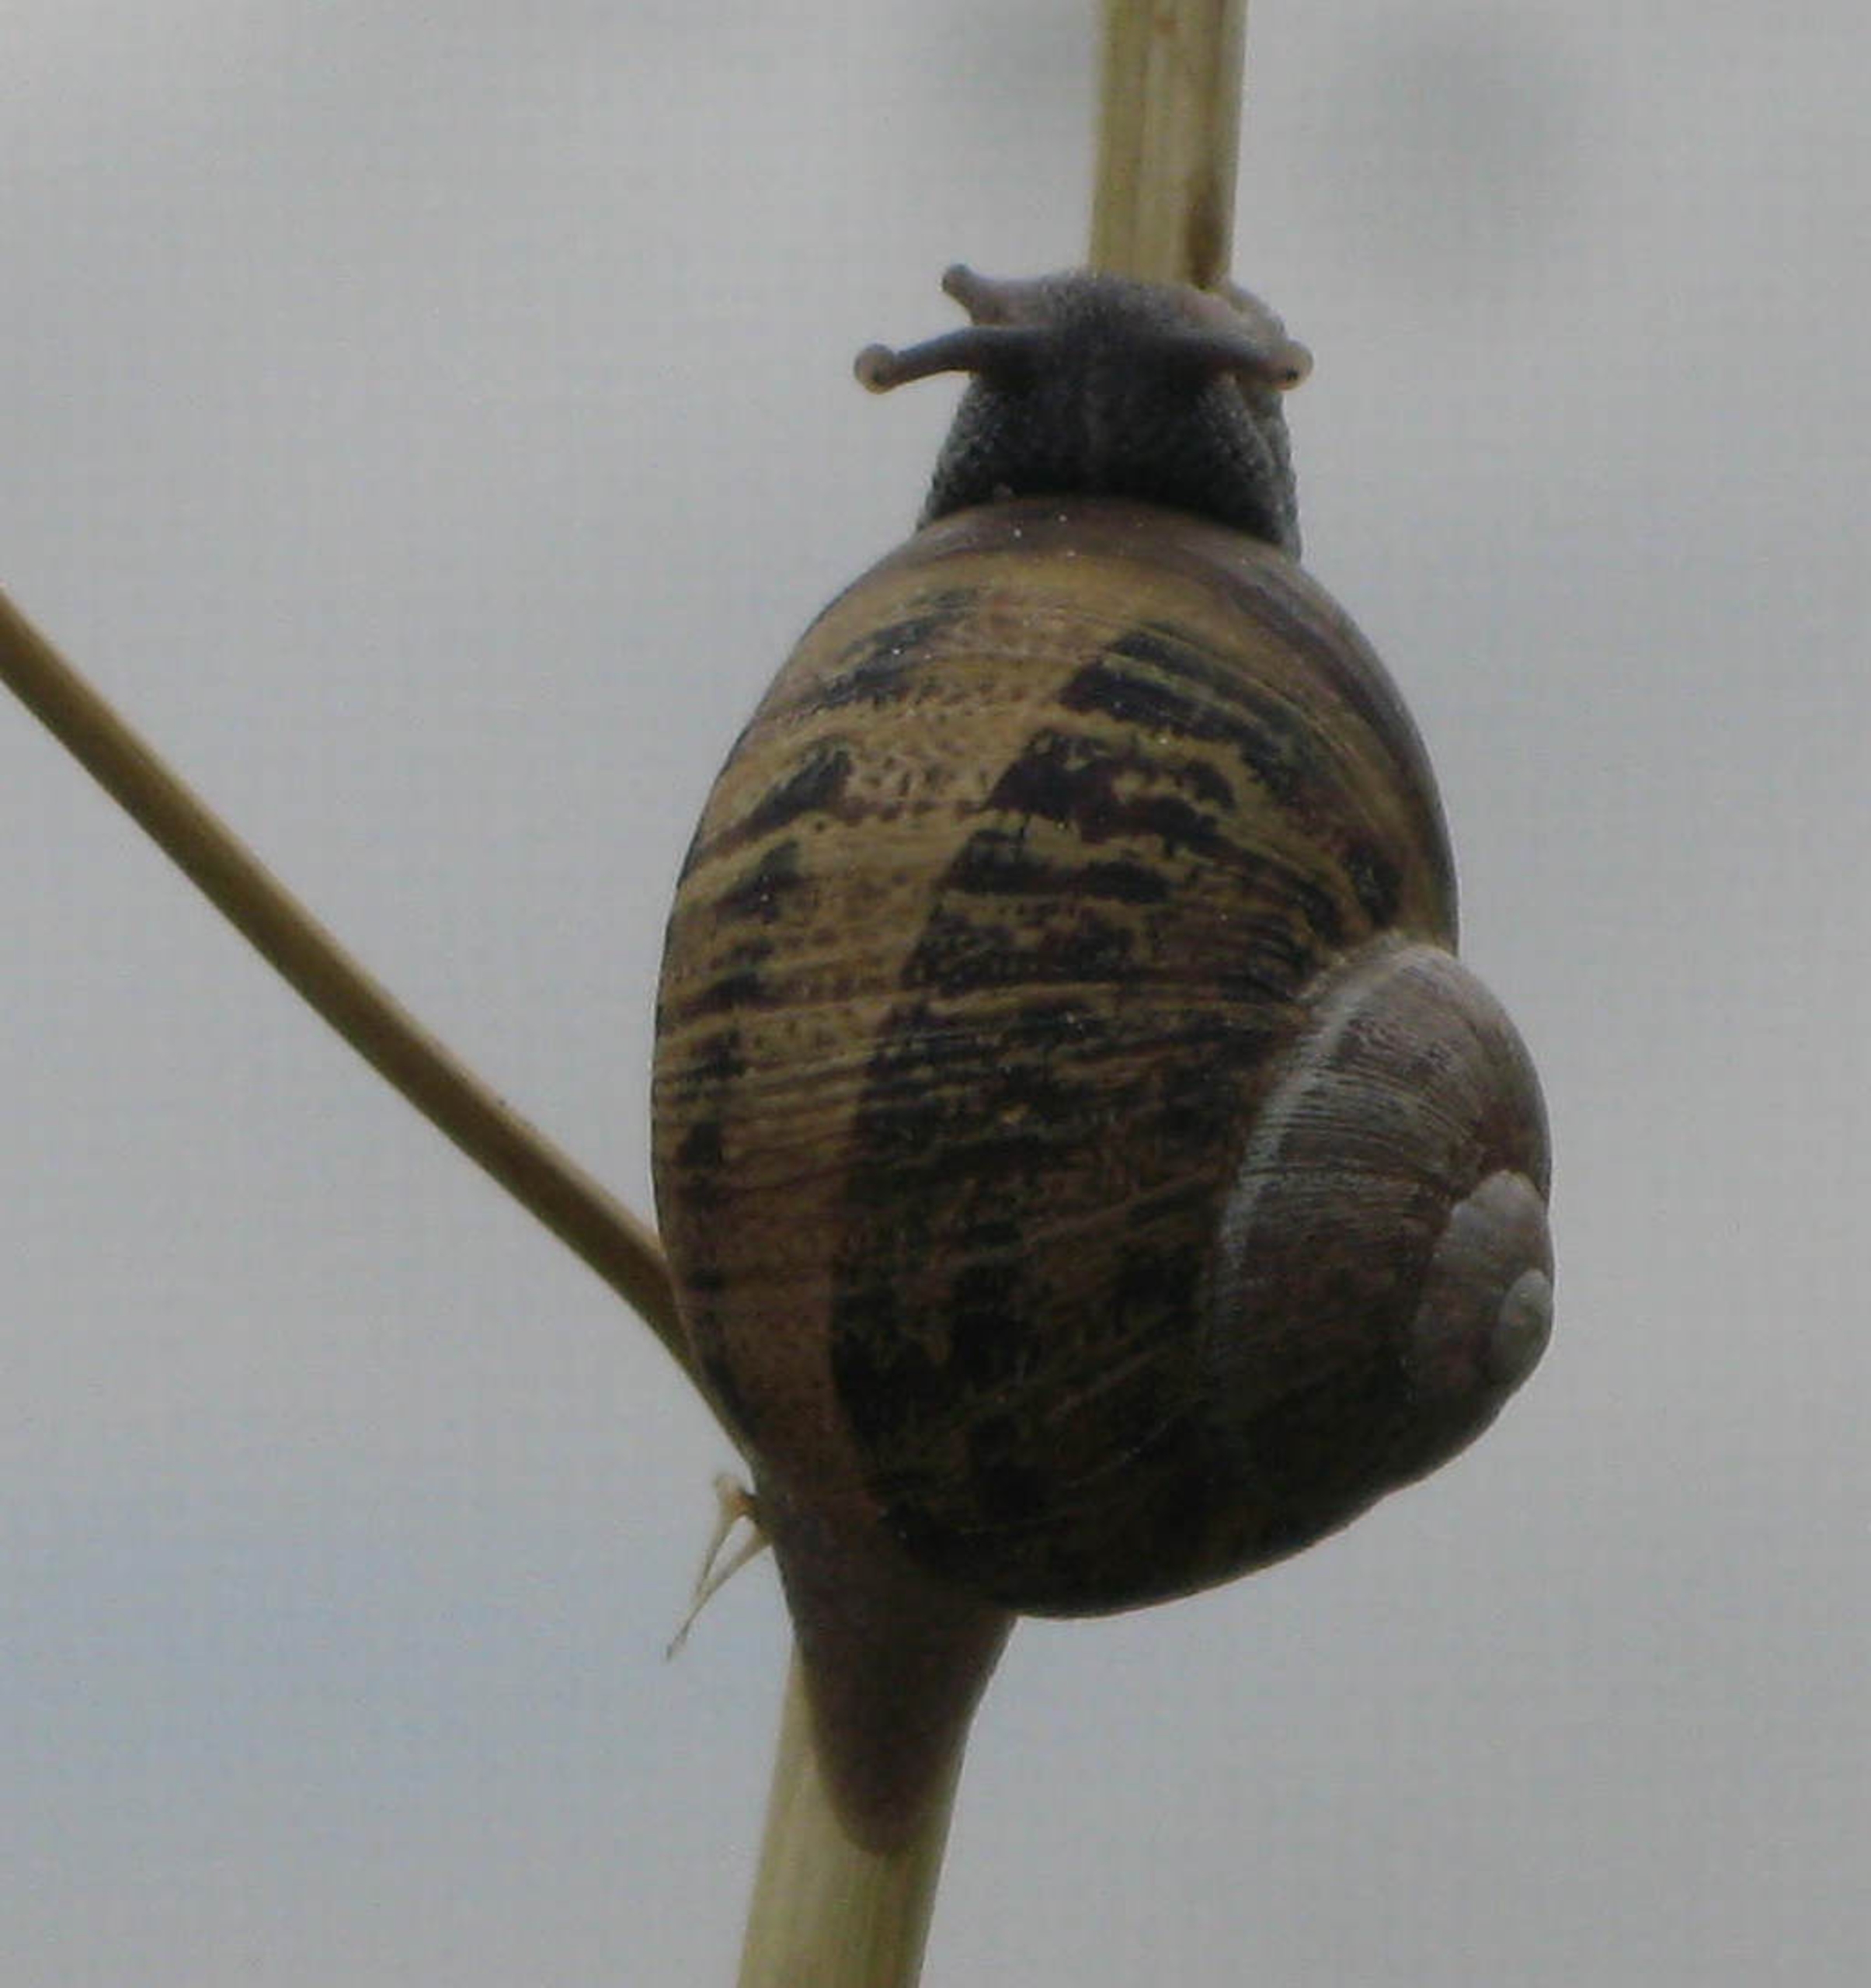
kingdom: Animalia
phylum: Mollusca
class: Gastropoda
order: Stylommatophora
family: Helicidae
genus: Cornu
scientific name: Cornu aspersum
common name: Plettet voldsnegl
